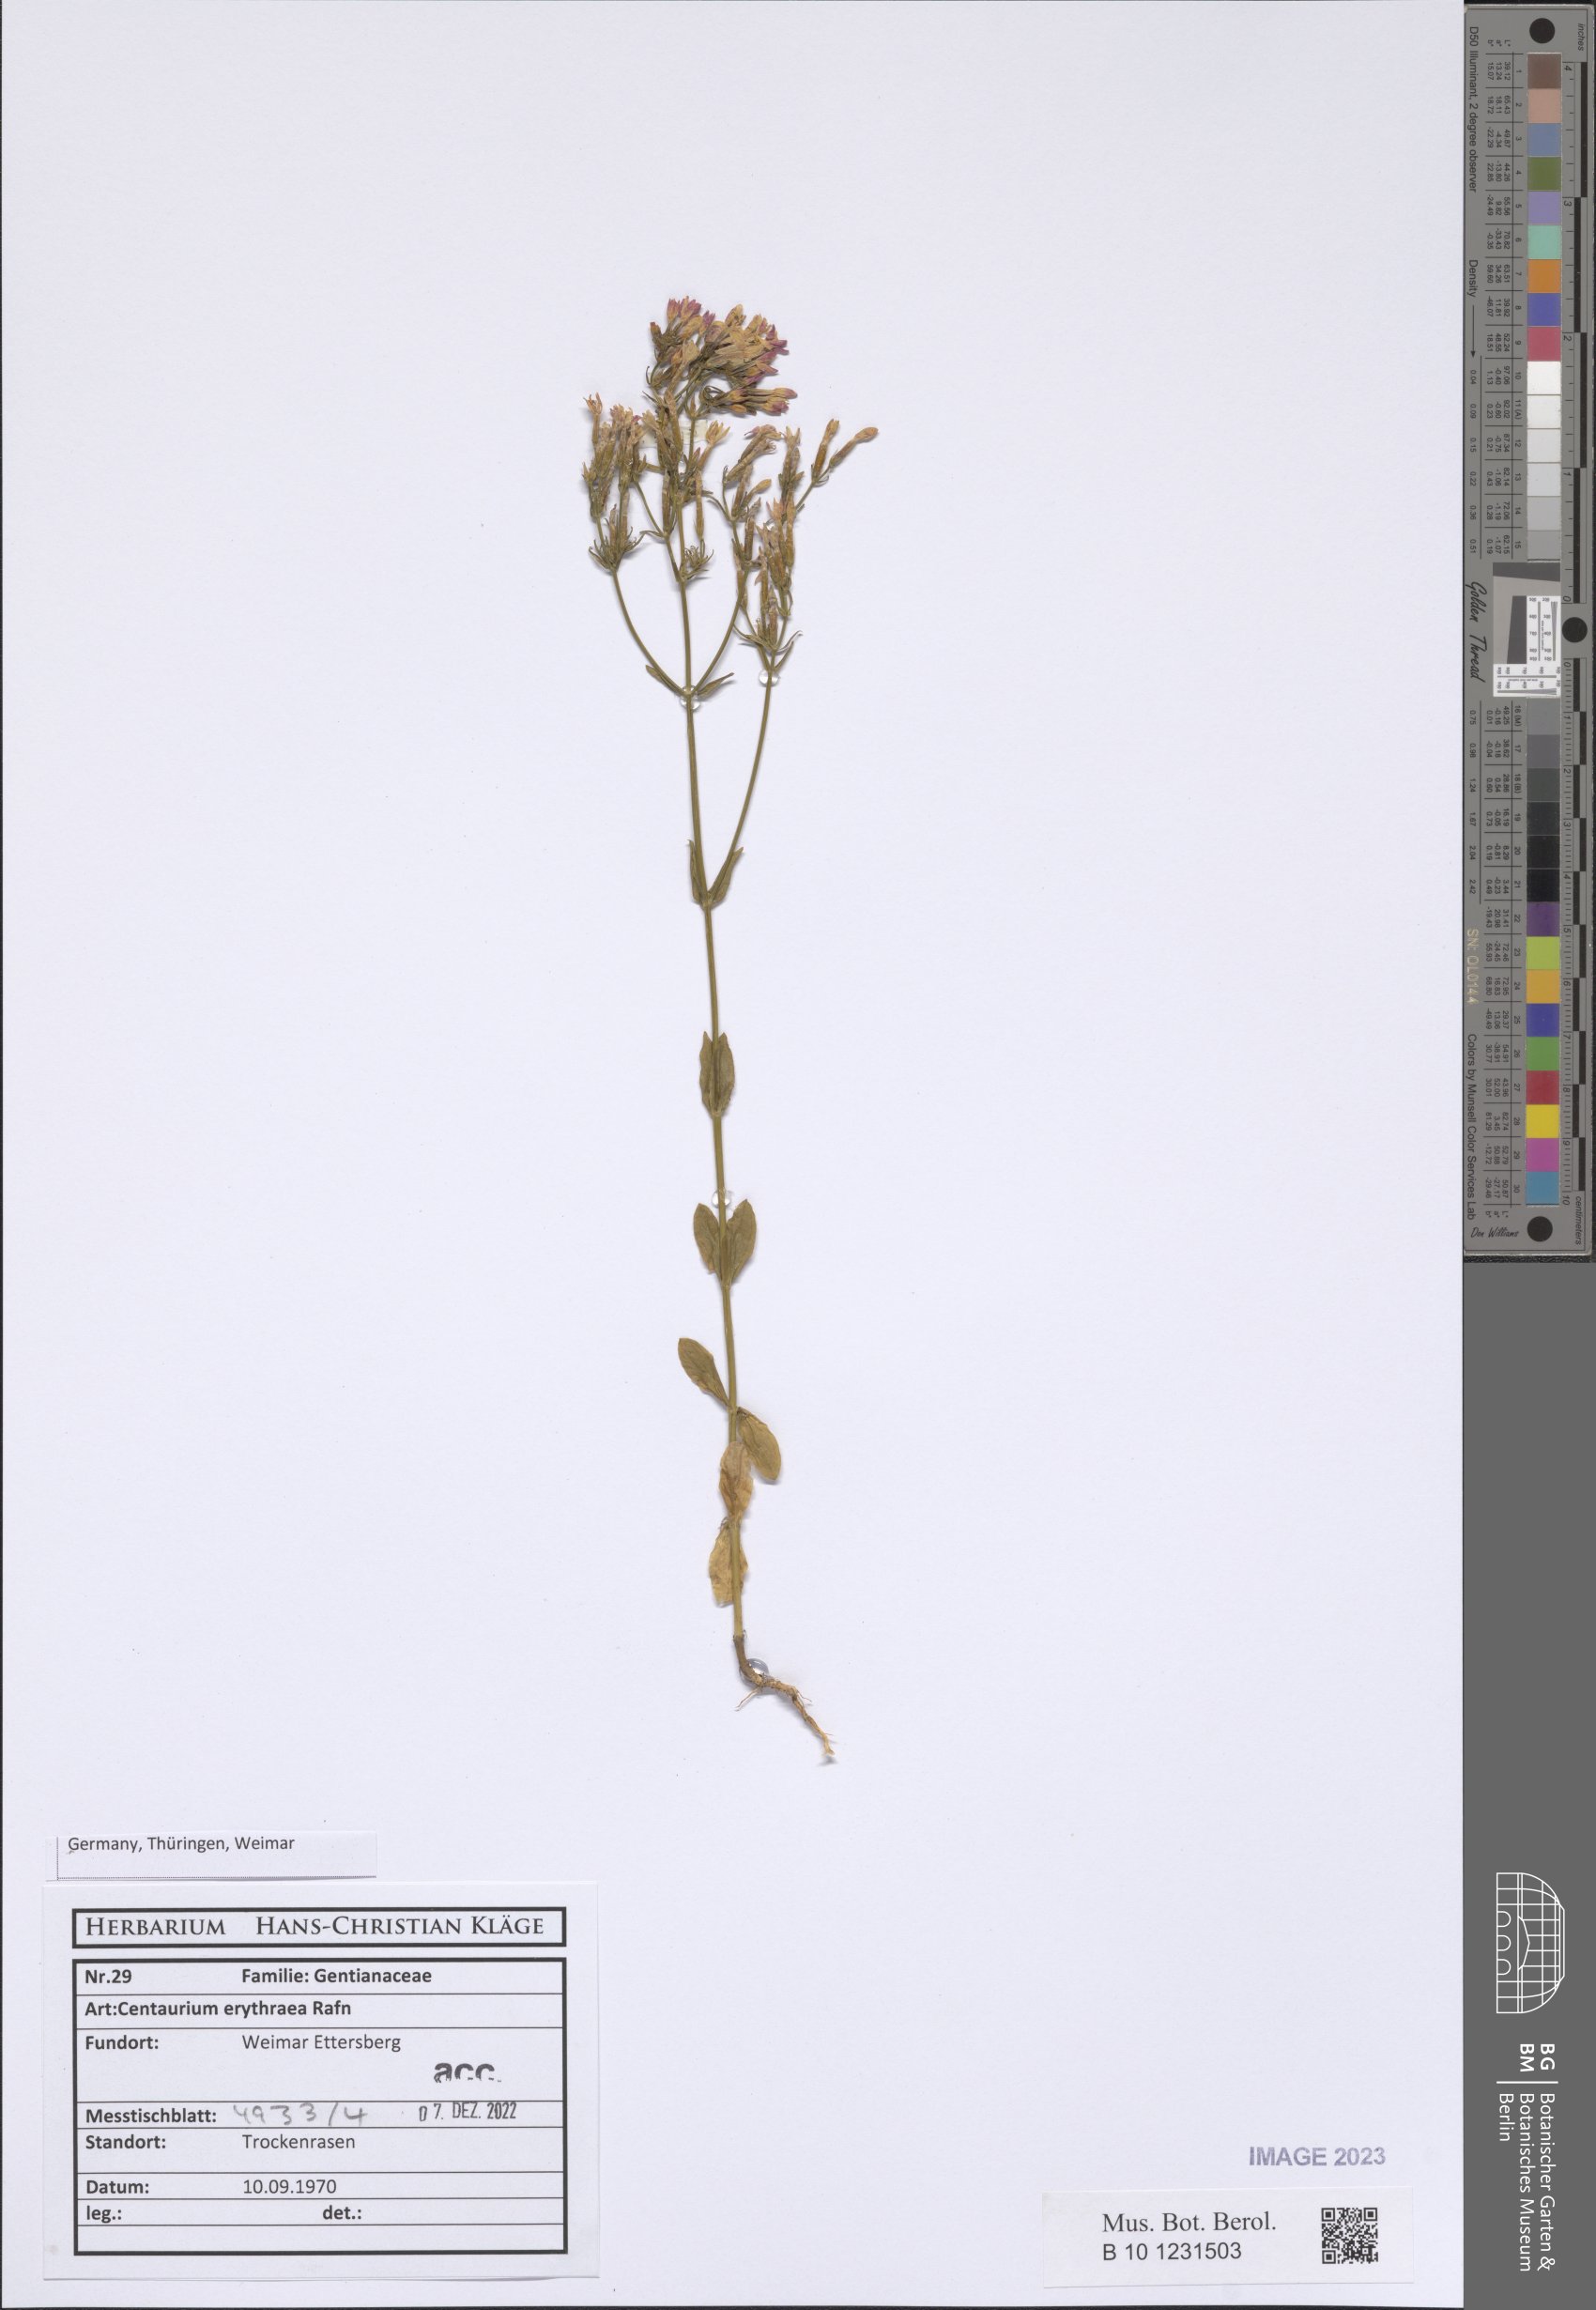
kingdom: Plantae
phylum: Tracheophyta
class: Magnoliopsida
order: Gentianales
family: Gentianaceae
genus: Centaurium
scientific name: Centaurium erythraea
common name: Common centaury
